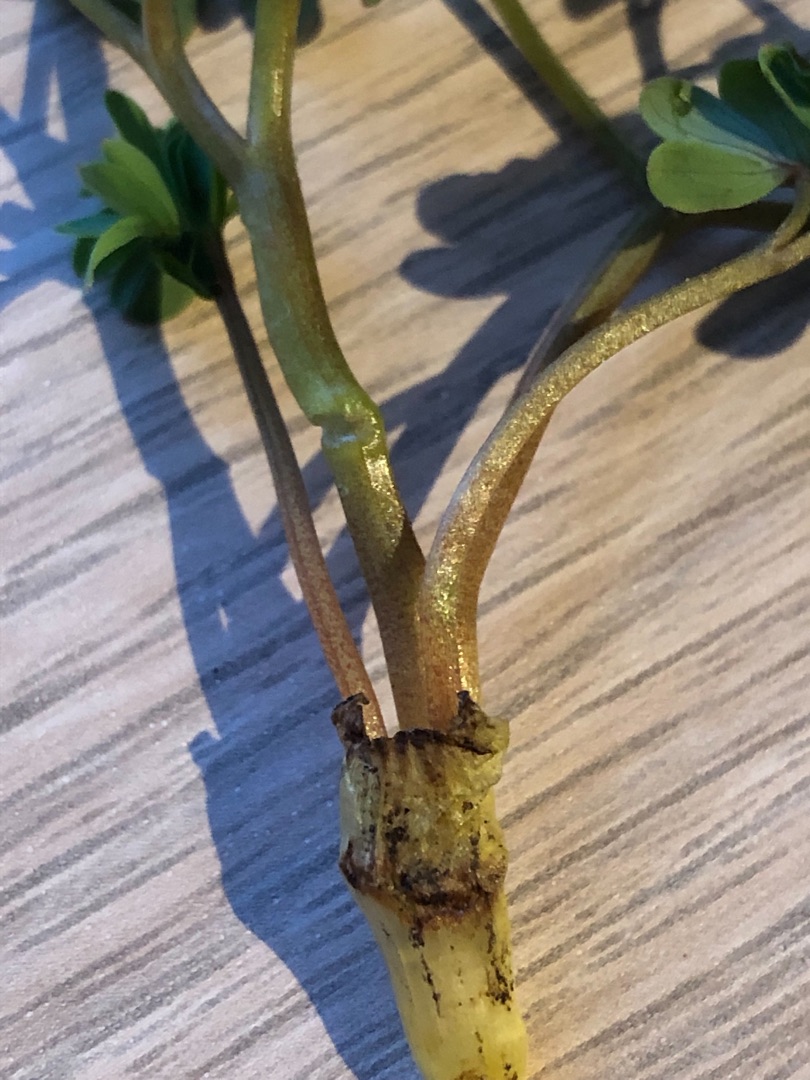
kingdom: Plantae
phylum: Tracheophyta
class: Magnoliopsida
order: Ranunculales
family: Papaveraceae
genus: Corydalis
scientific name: Corydalis solida
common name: Langstilket lærkespore
